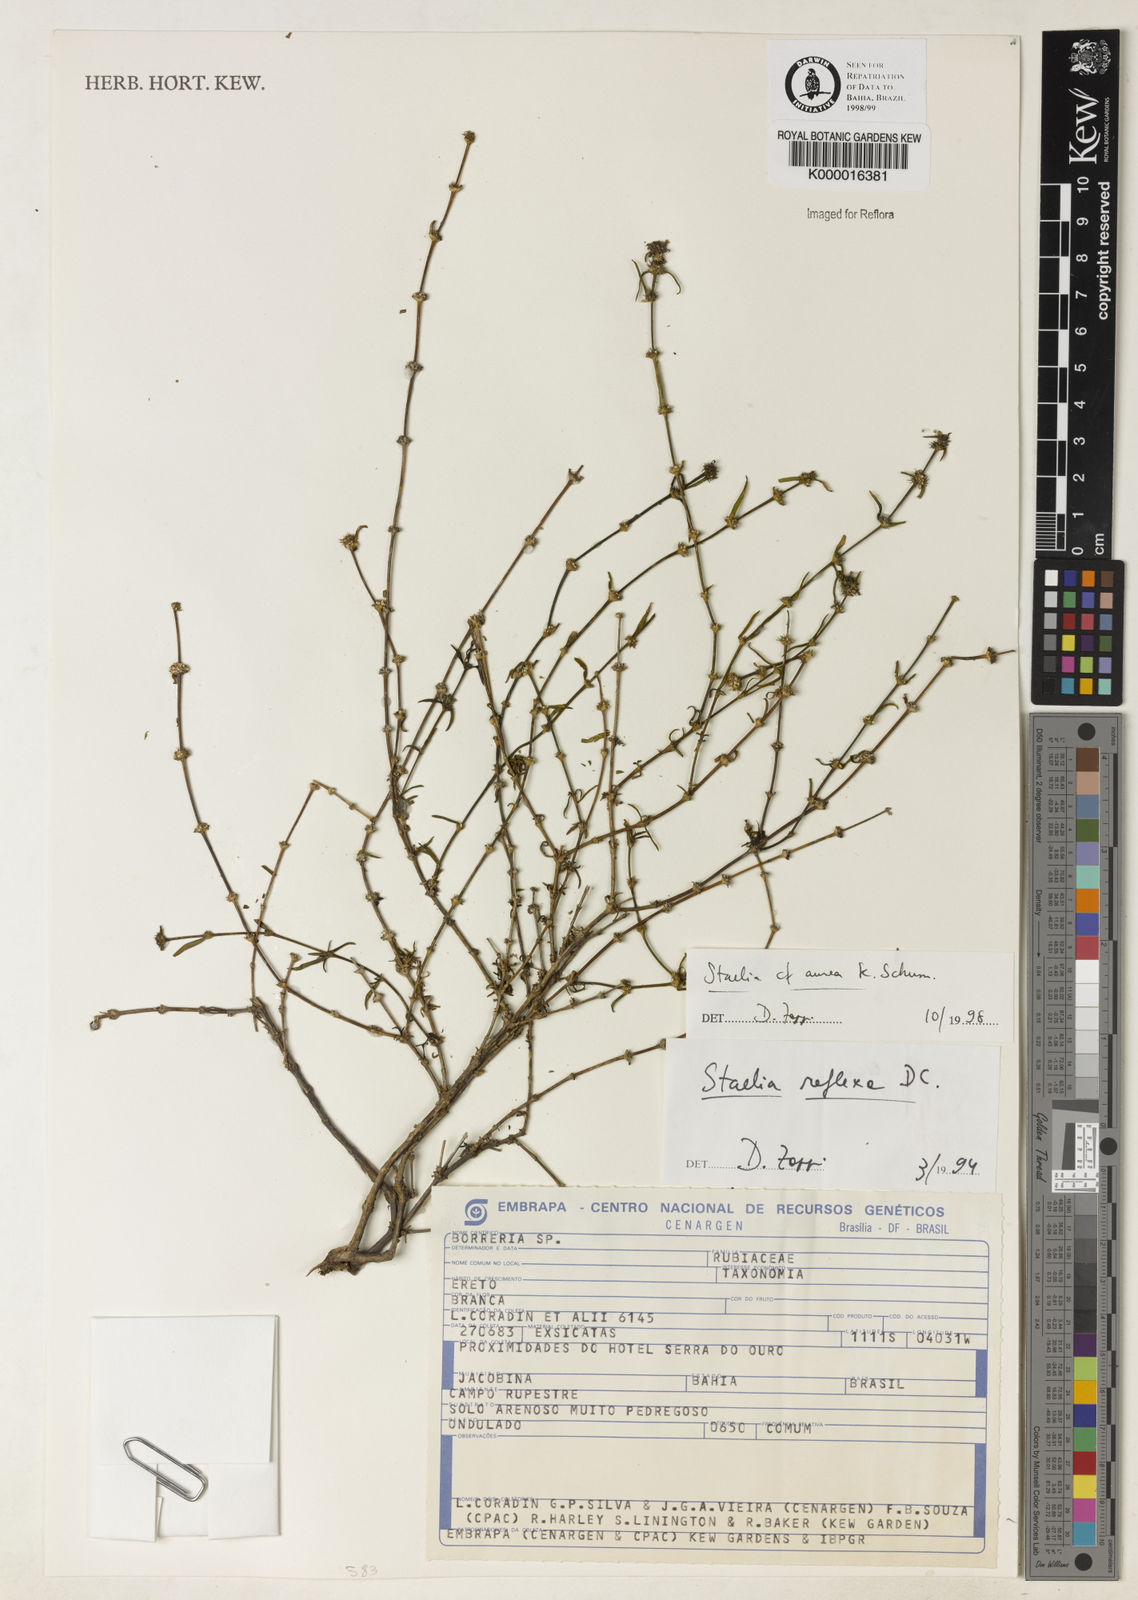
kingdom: Plantae
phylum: Tracheophyta
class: Magnoliopsida
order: Gentianales
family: Rubiaceae
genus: Staelia
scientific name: Staelia aurea
